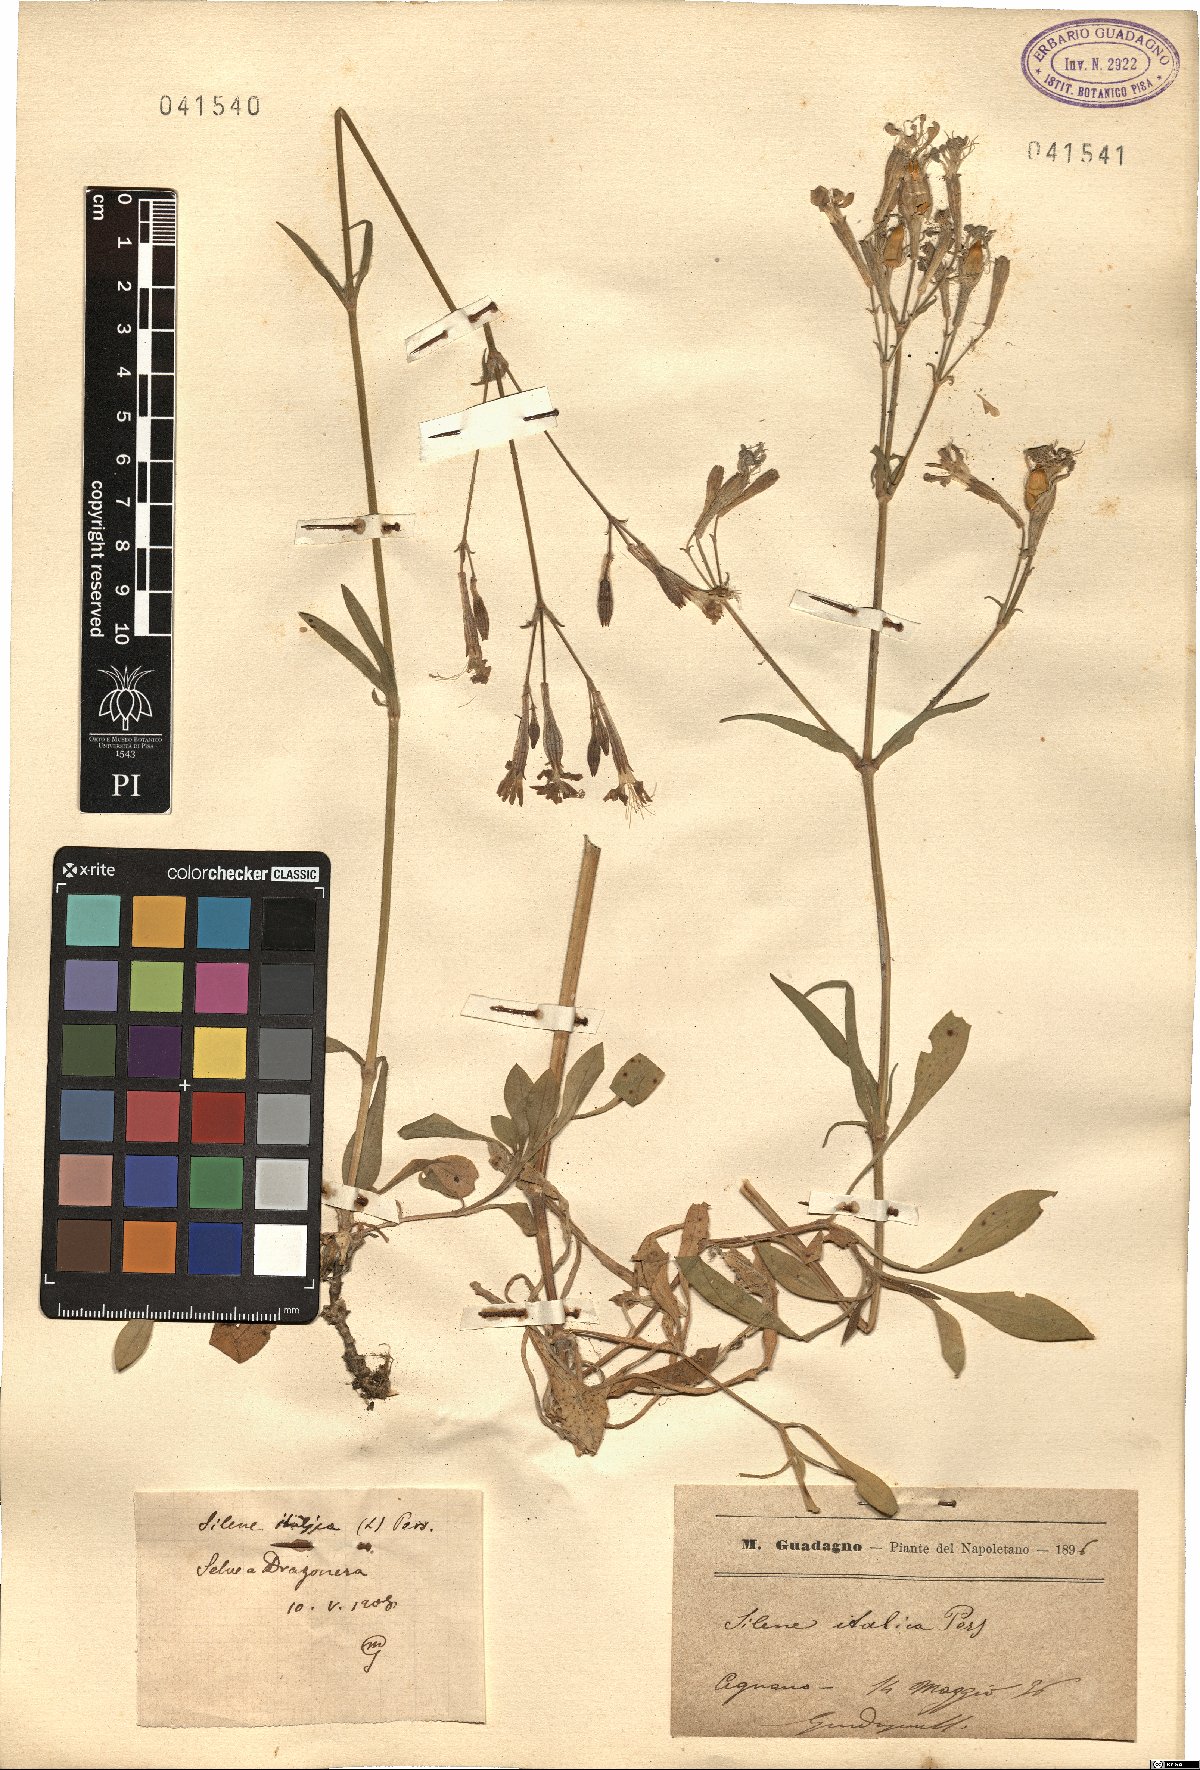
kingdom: Plantae
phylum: Tracheophyta
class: Magnoliopsida
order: Caryophyllales
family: Caryophyllaceae
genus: Silene
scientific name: Silene italica
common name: Italian catchfly
